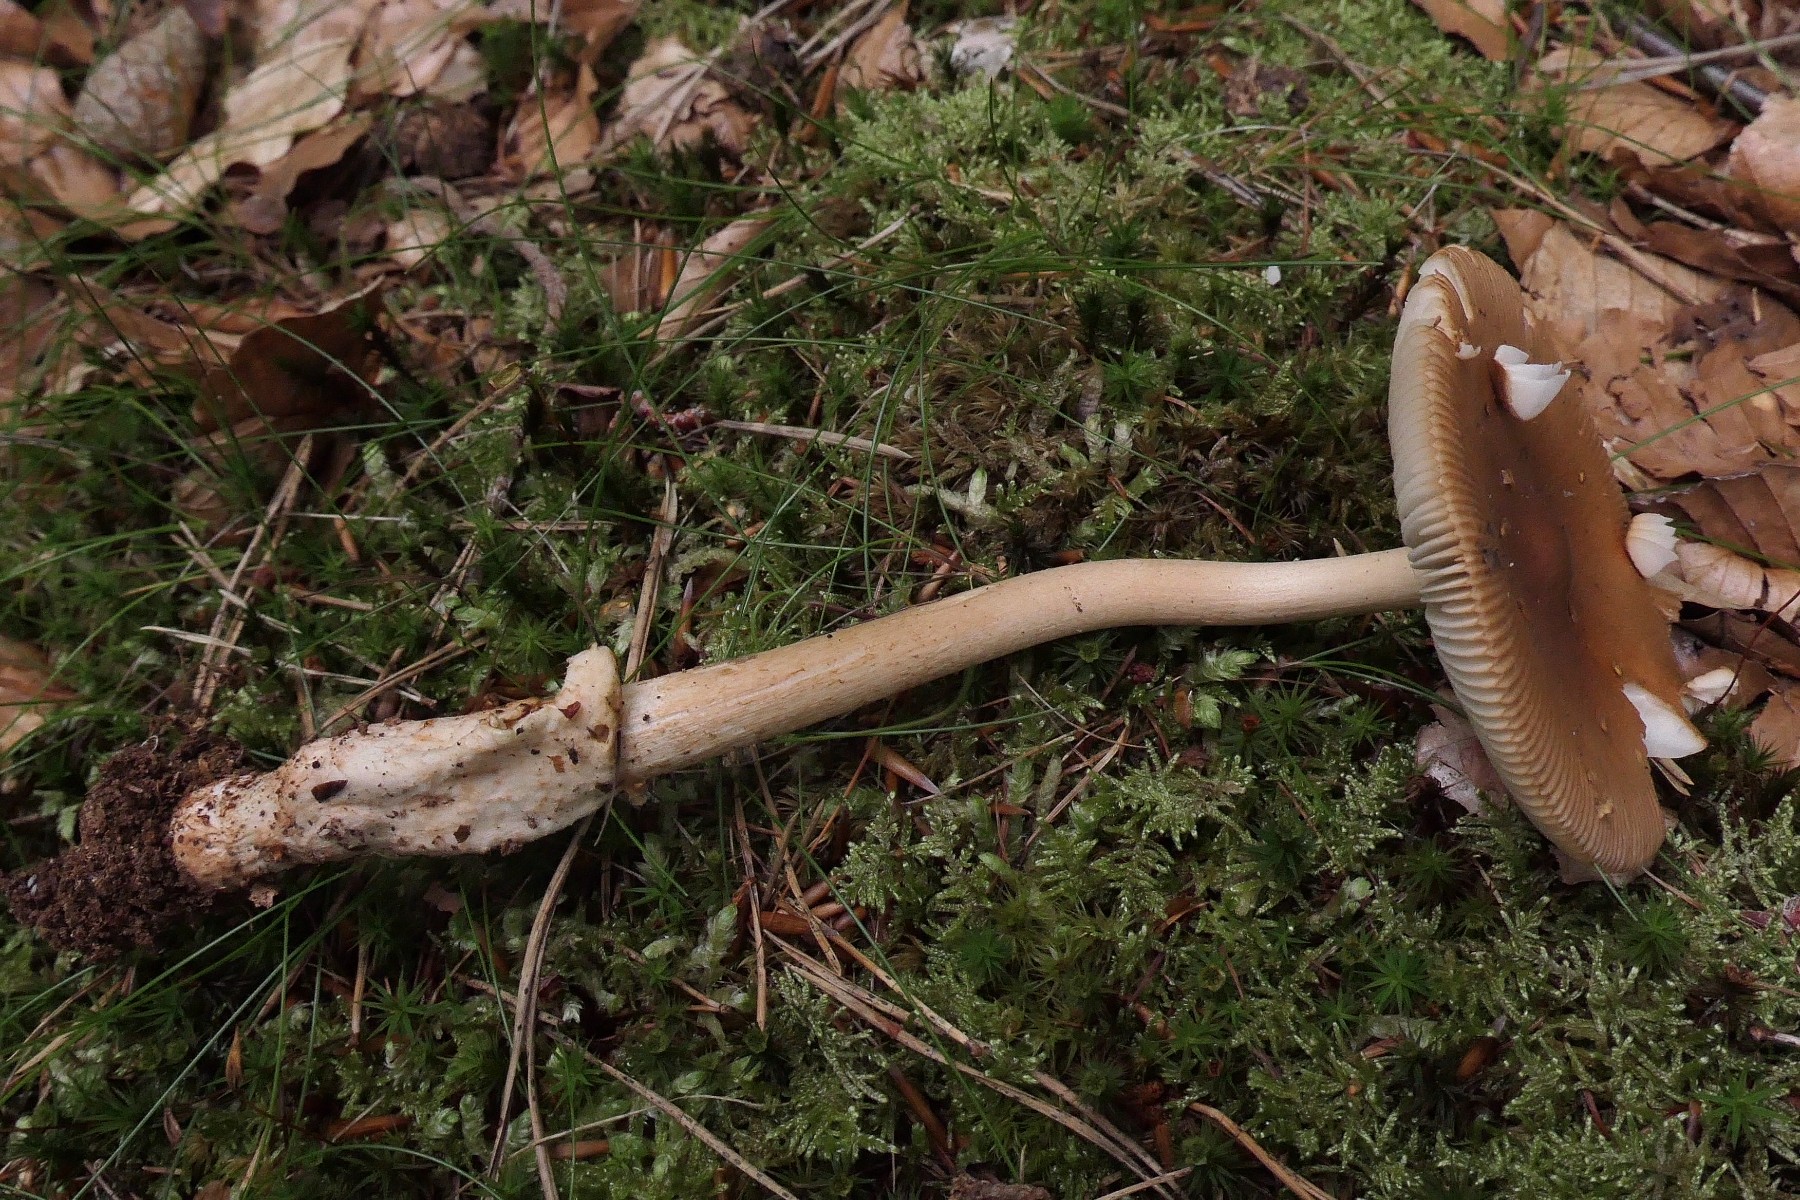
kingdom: Fungi
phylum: Basidiomycota
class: Agaricomycetes
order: Agaricales
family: Amanitaceae
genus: Amanita
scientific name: Amanita fulva
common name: brun kam-fluesvamp
